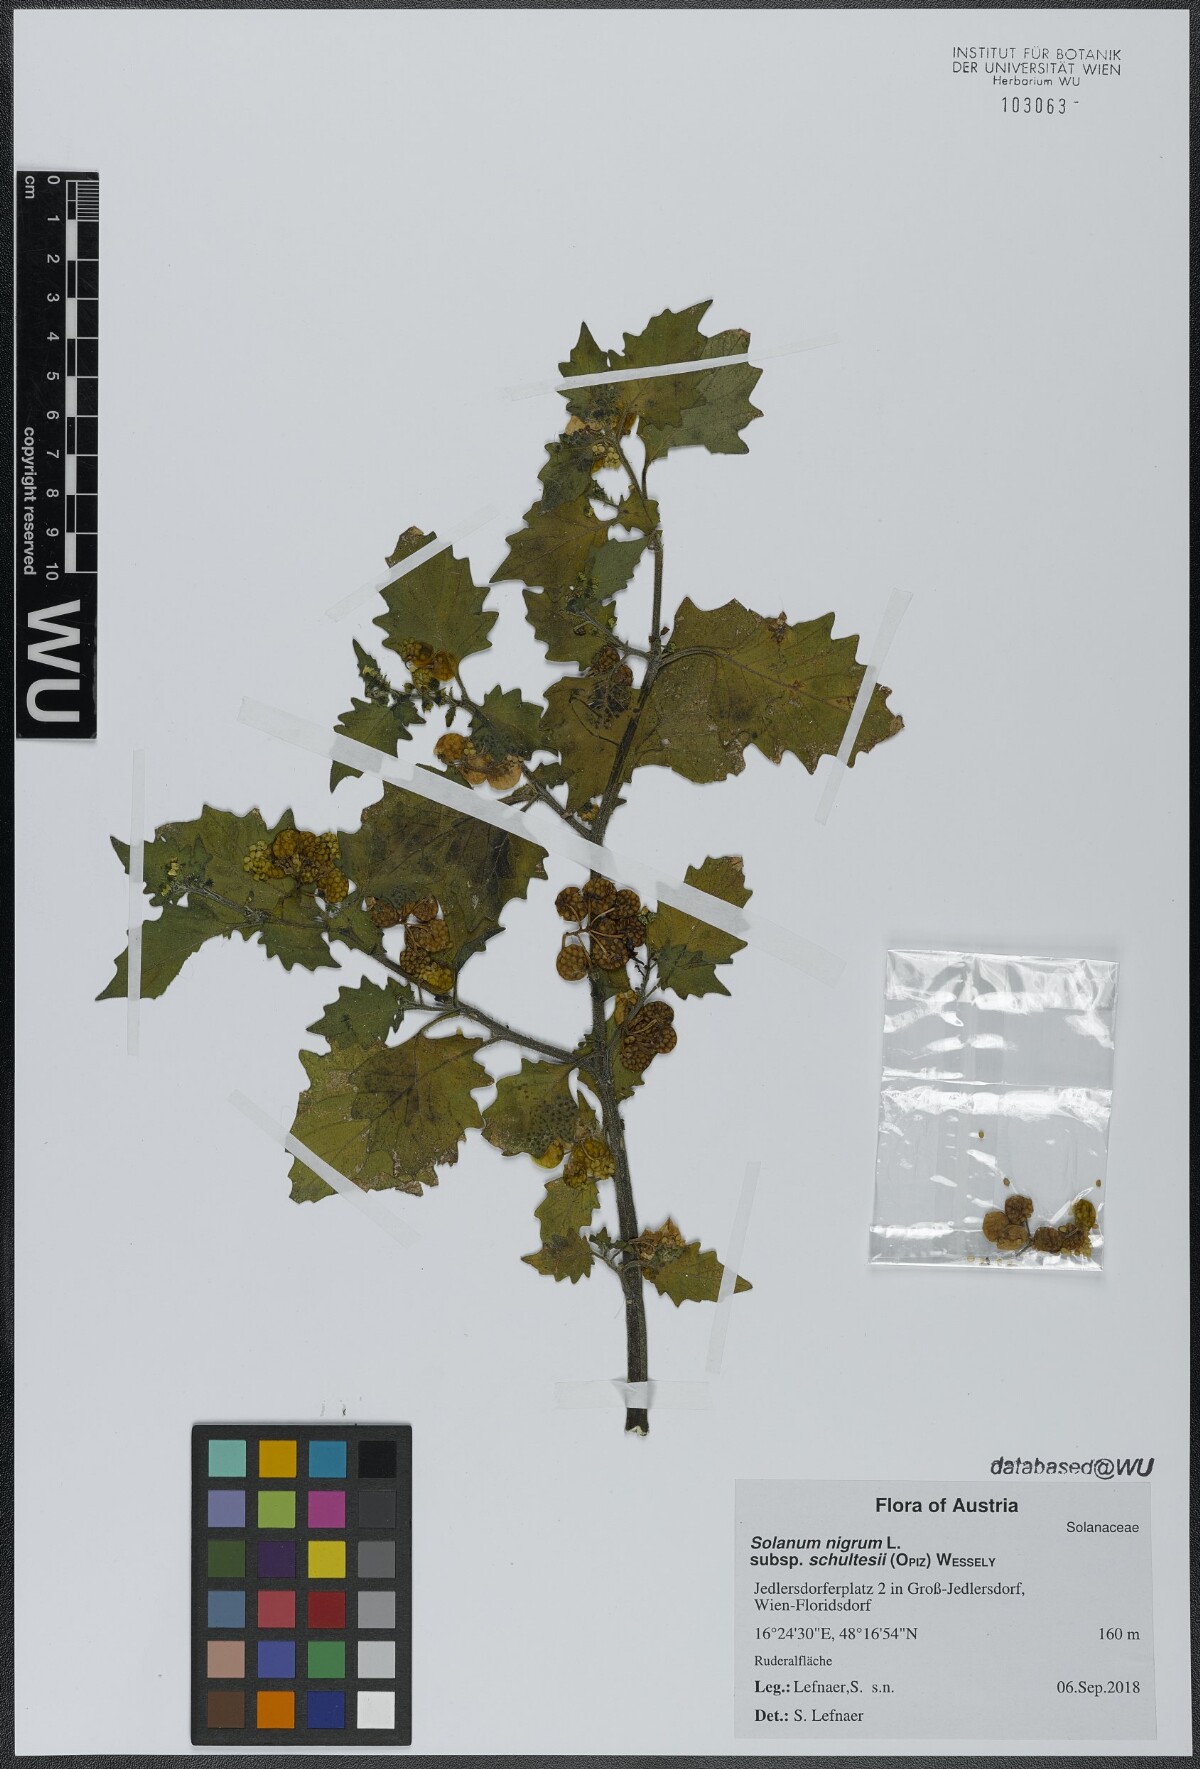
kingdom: Plantae
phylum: Tracheophyta
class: Magnoliopsida
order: Solanales
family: Solanaceae
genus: Solanum
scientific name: Solanum decipiens
